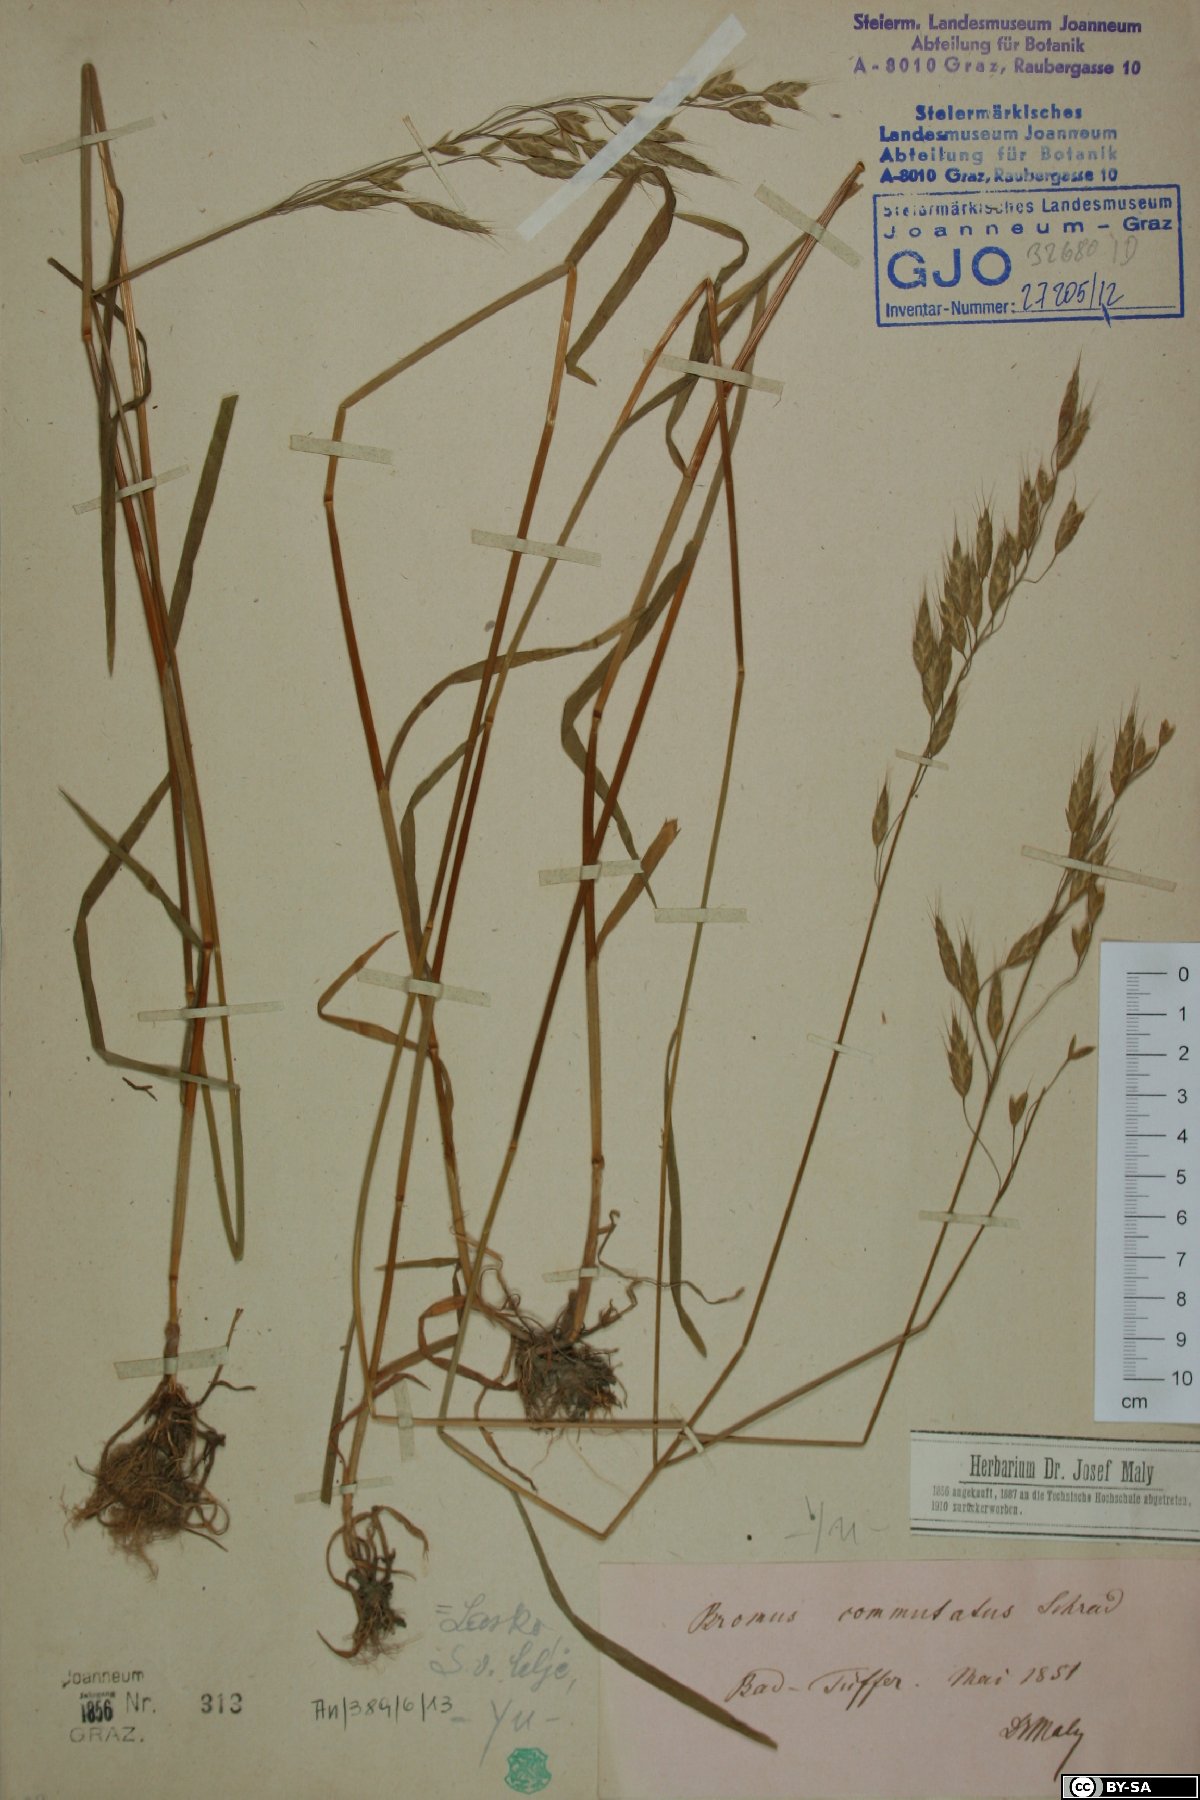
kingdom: Plantae
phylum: Tracheophyta
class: Liliopsida
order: Poales
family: Poaceae
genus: Bromus
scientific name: Bromus commutatus
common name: Meadow brome
